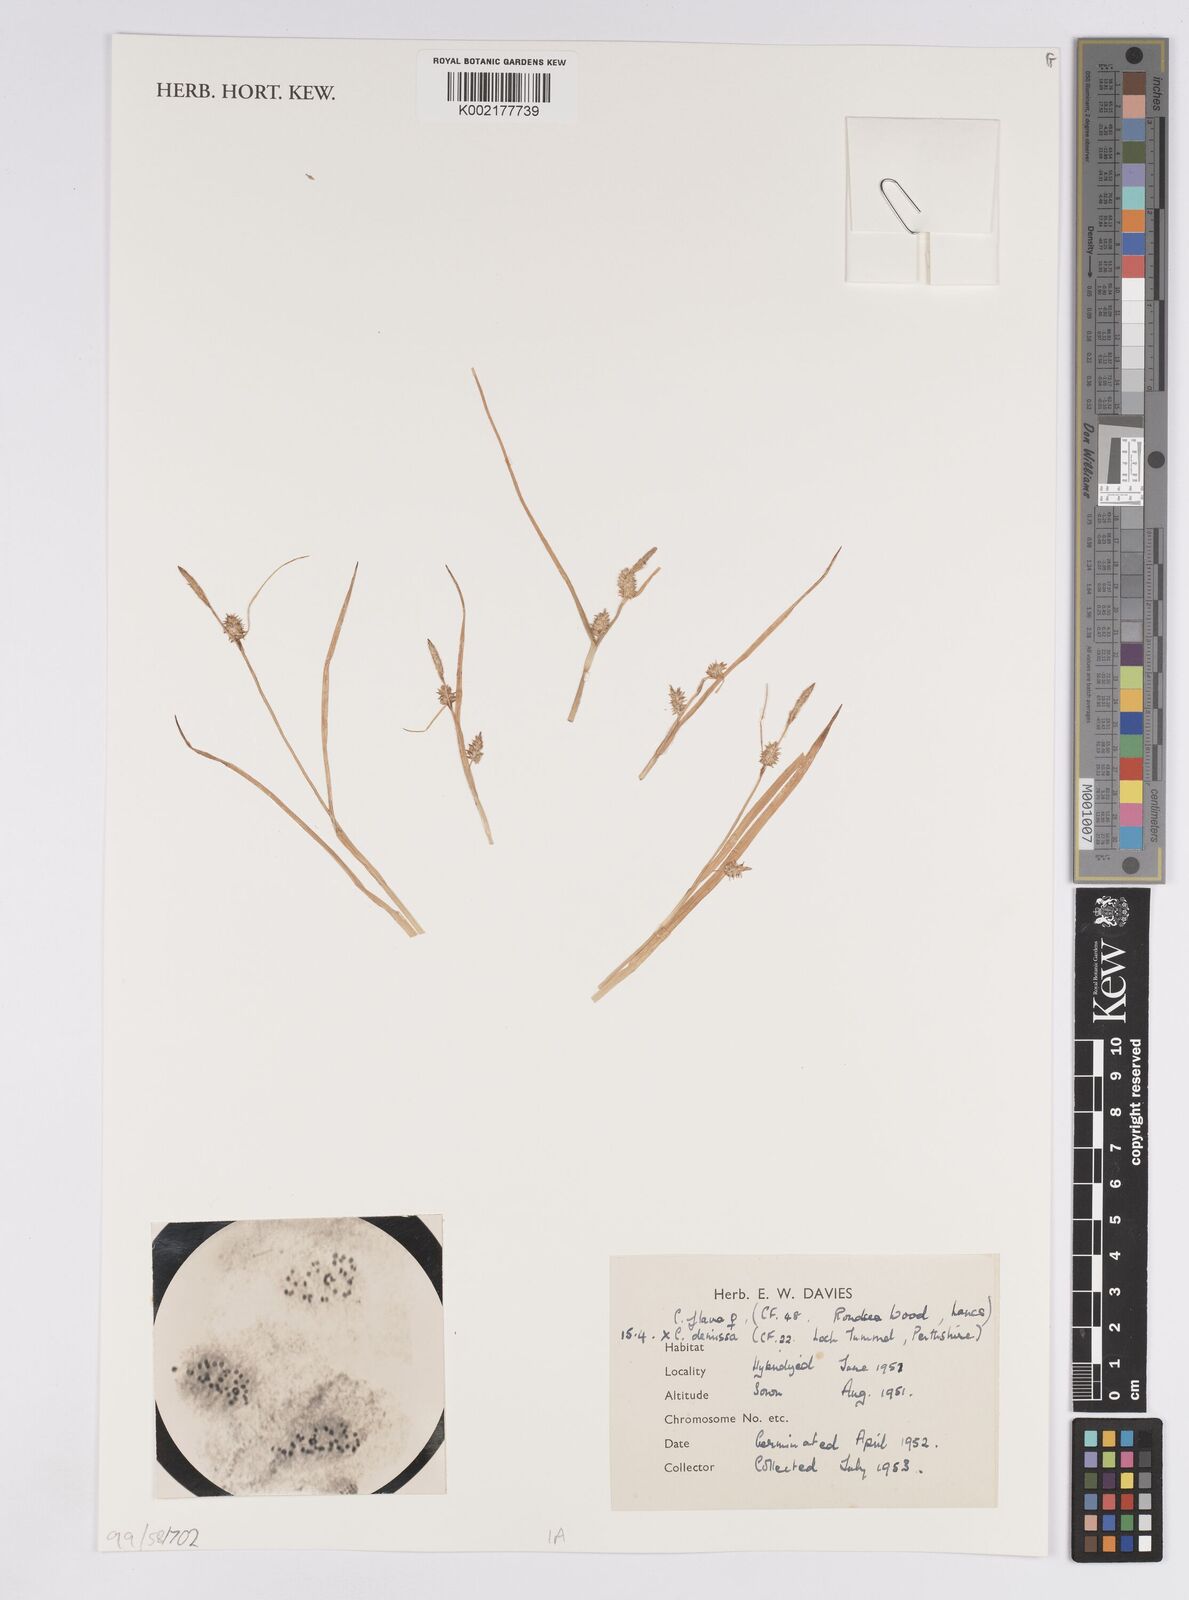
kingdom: Plantae
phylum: Tracheophyta
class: Liliopsida
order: Poales
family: Cyperaceae
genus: Carex
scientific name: Carex flava
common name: Large yellow-sedge
